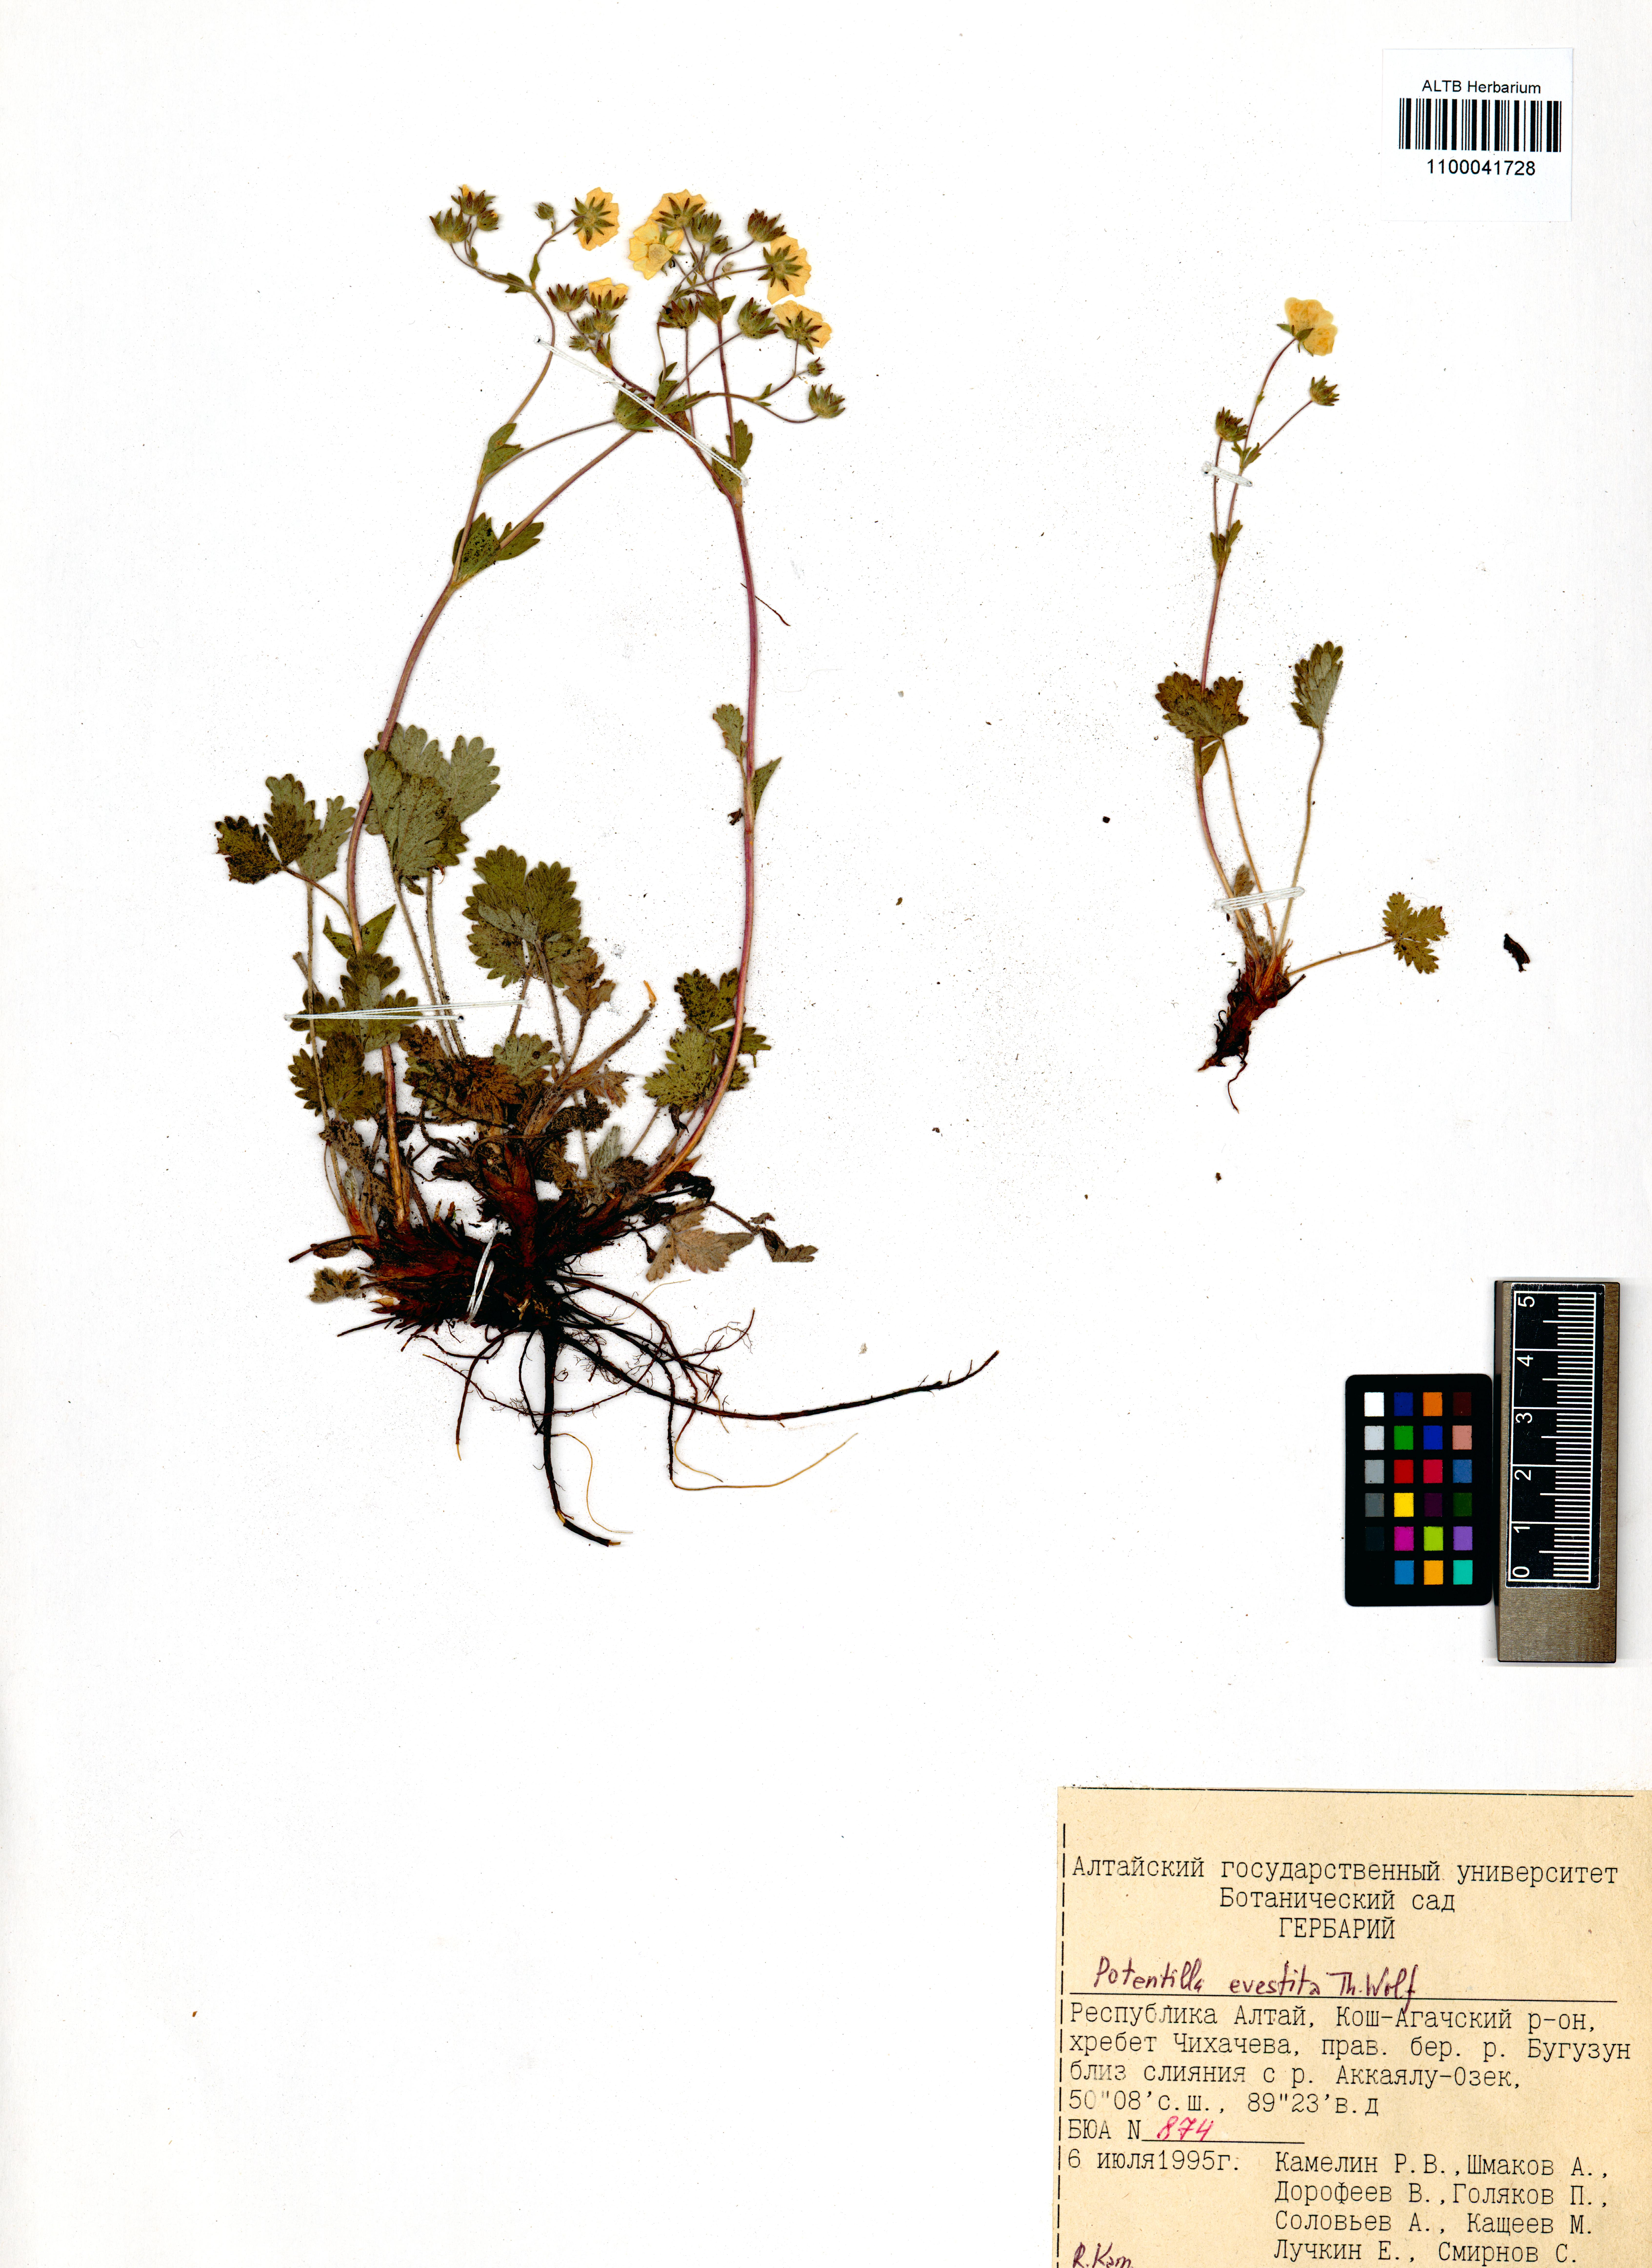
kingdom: Plantae
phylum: Tracheophyta
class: Magnoliopsida
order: Rosales
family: Rosaceae
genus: Potentilla
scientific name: Potentilla evestita
